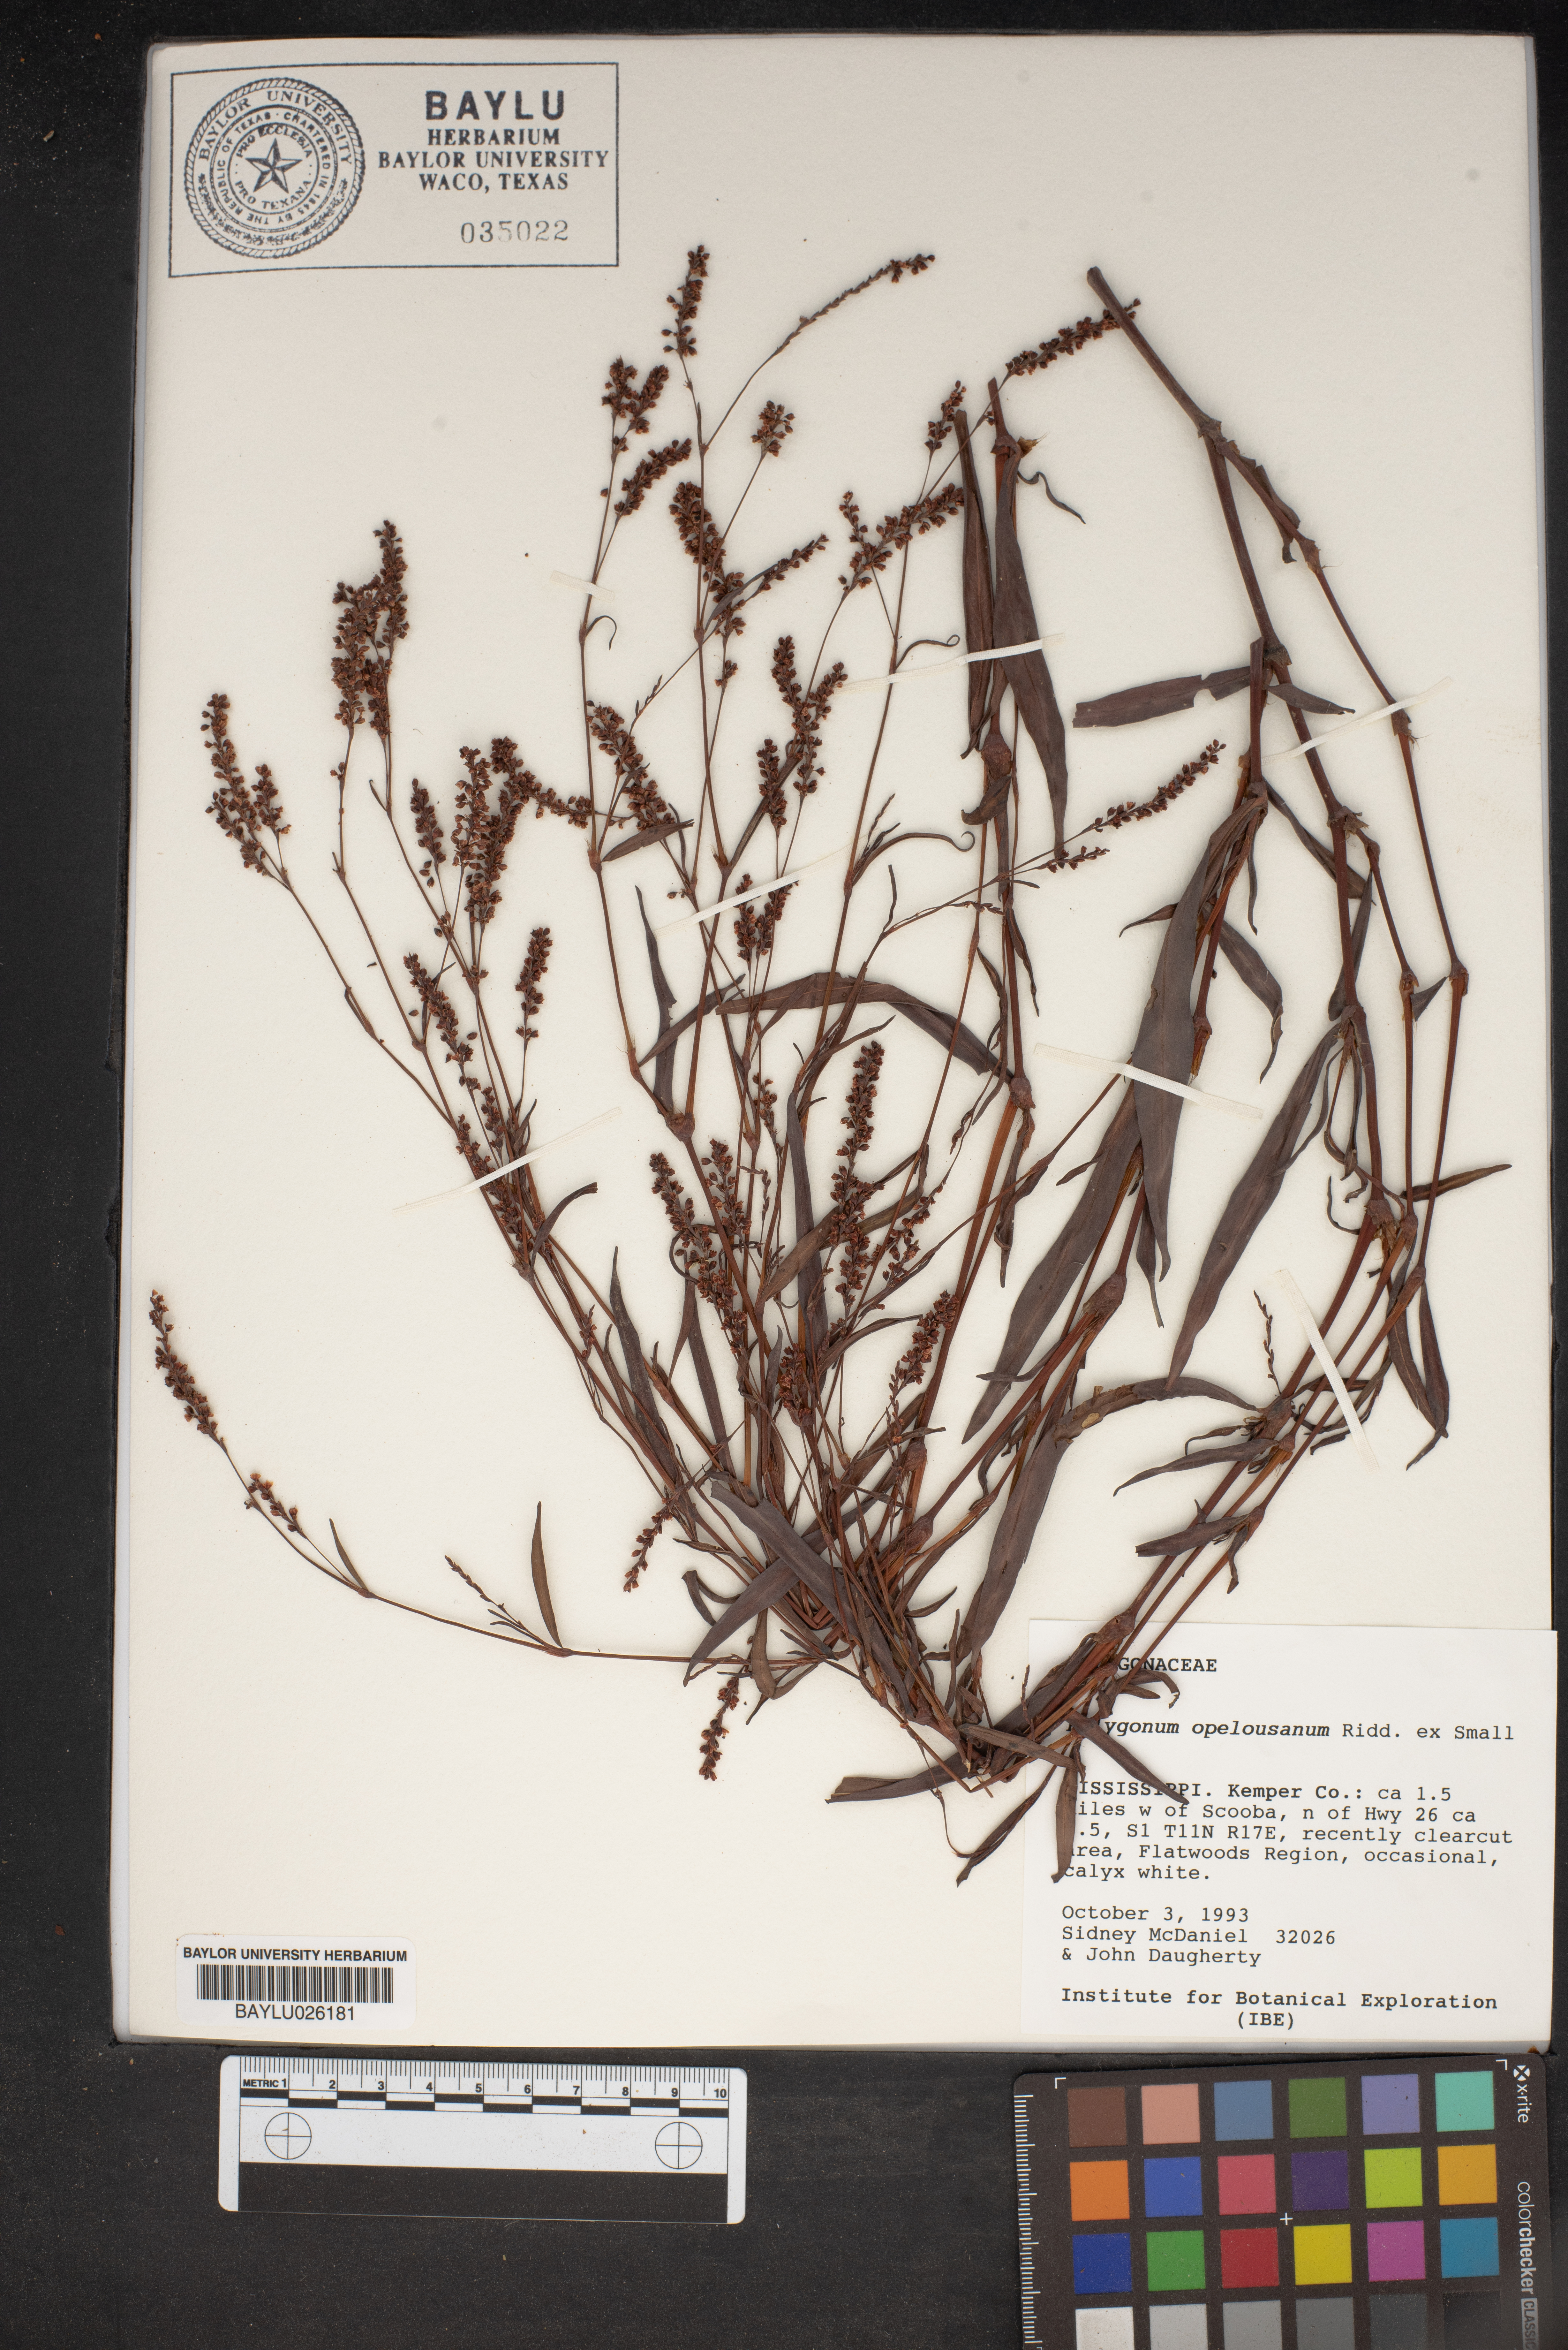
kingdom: Plantae
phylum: Tracheophyta
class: Magnoliopsida
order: Caryophyllales
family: Polygonaceae
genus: Persicaria
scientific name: Persicaria hydropiperoides
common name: Swamp smartweed
